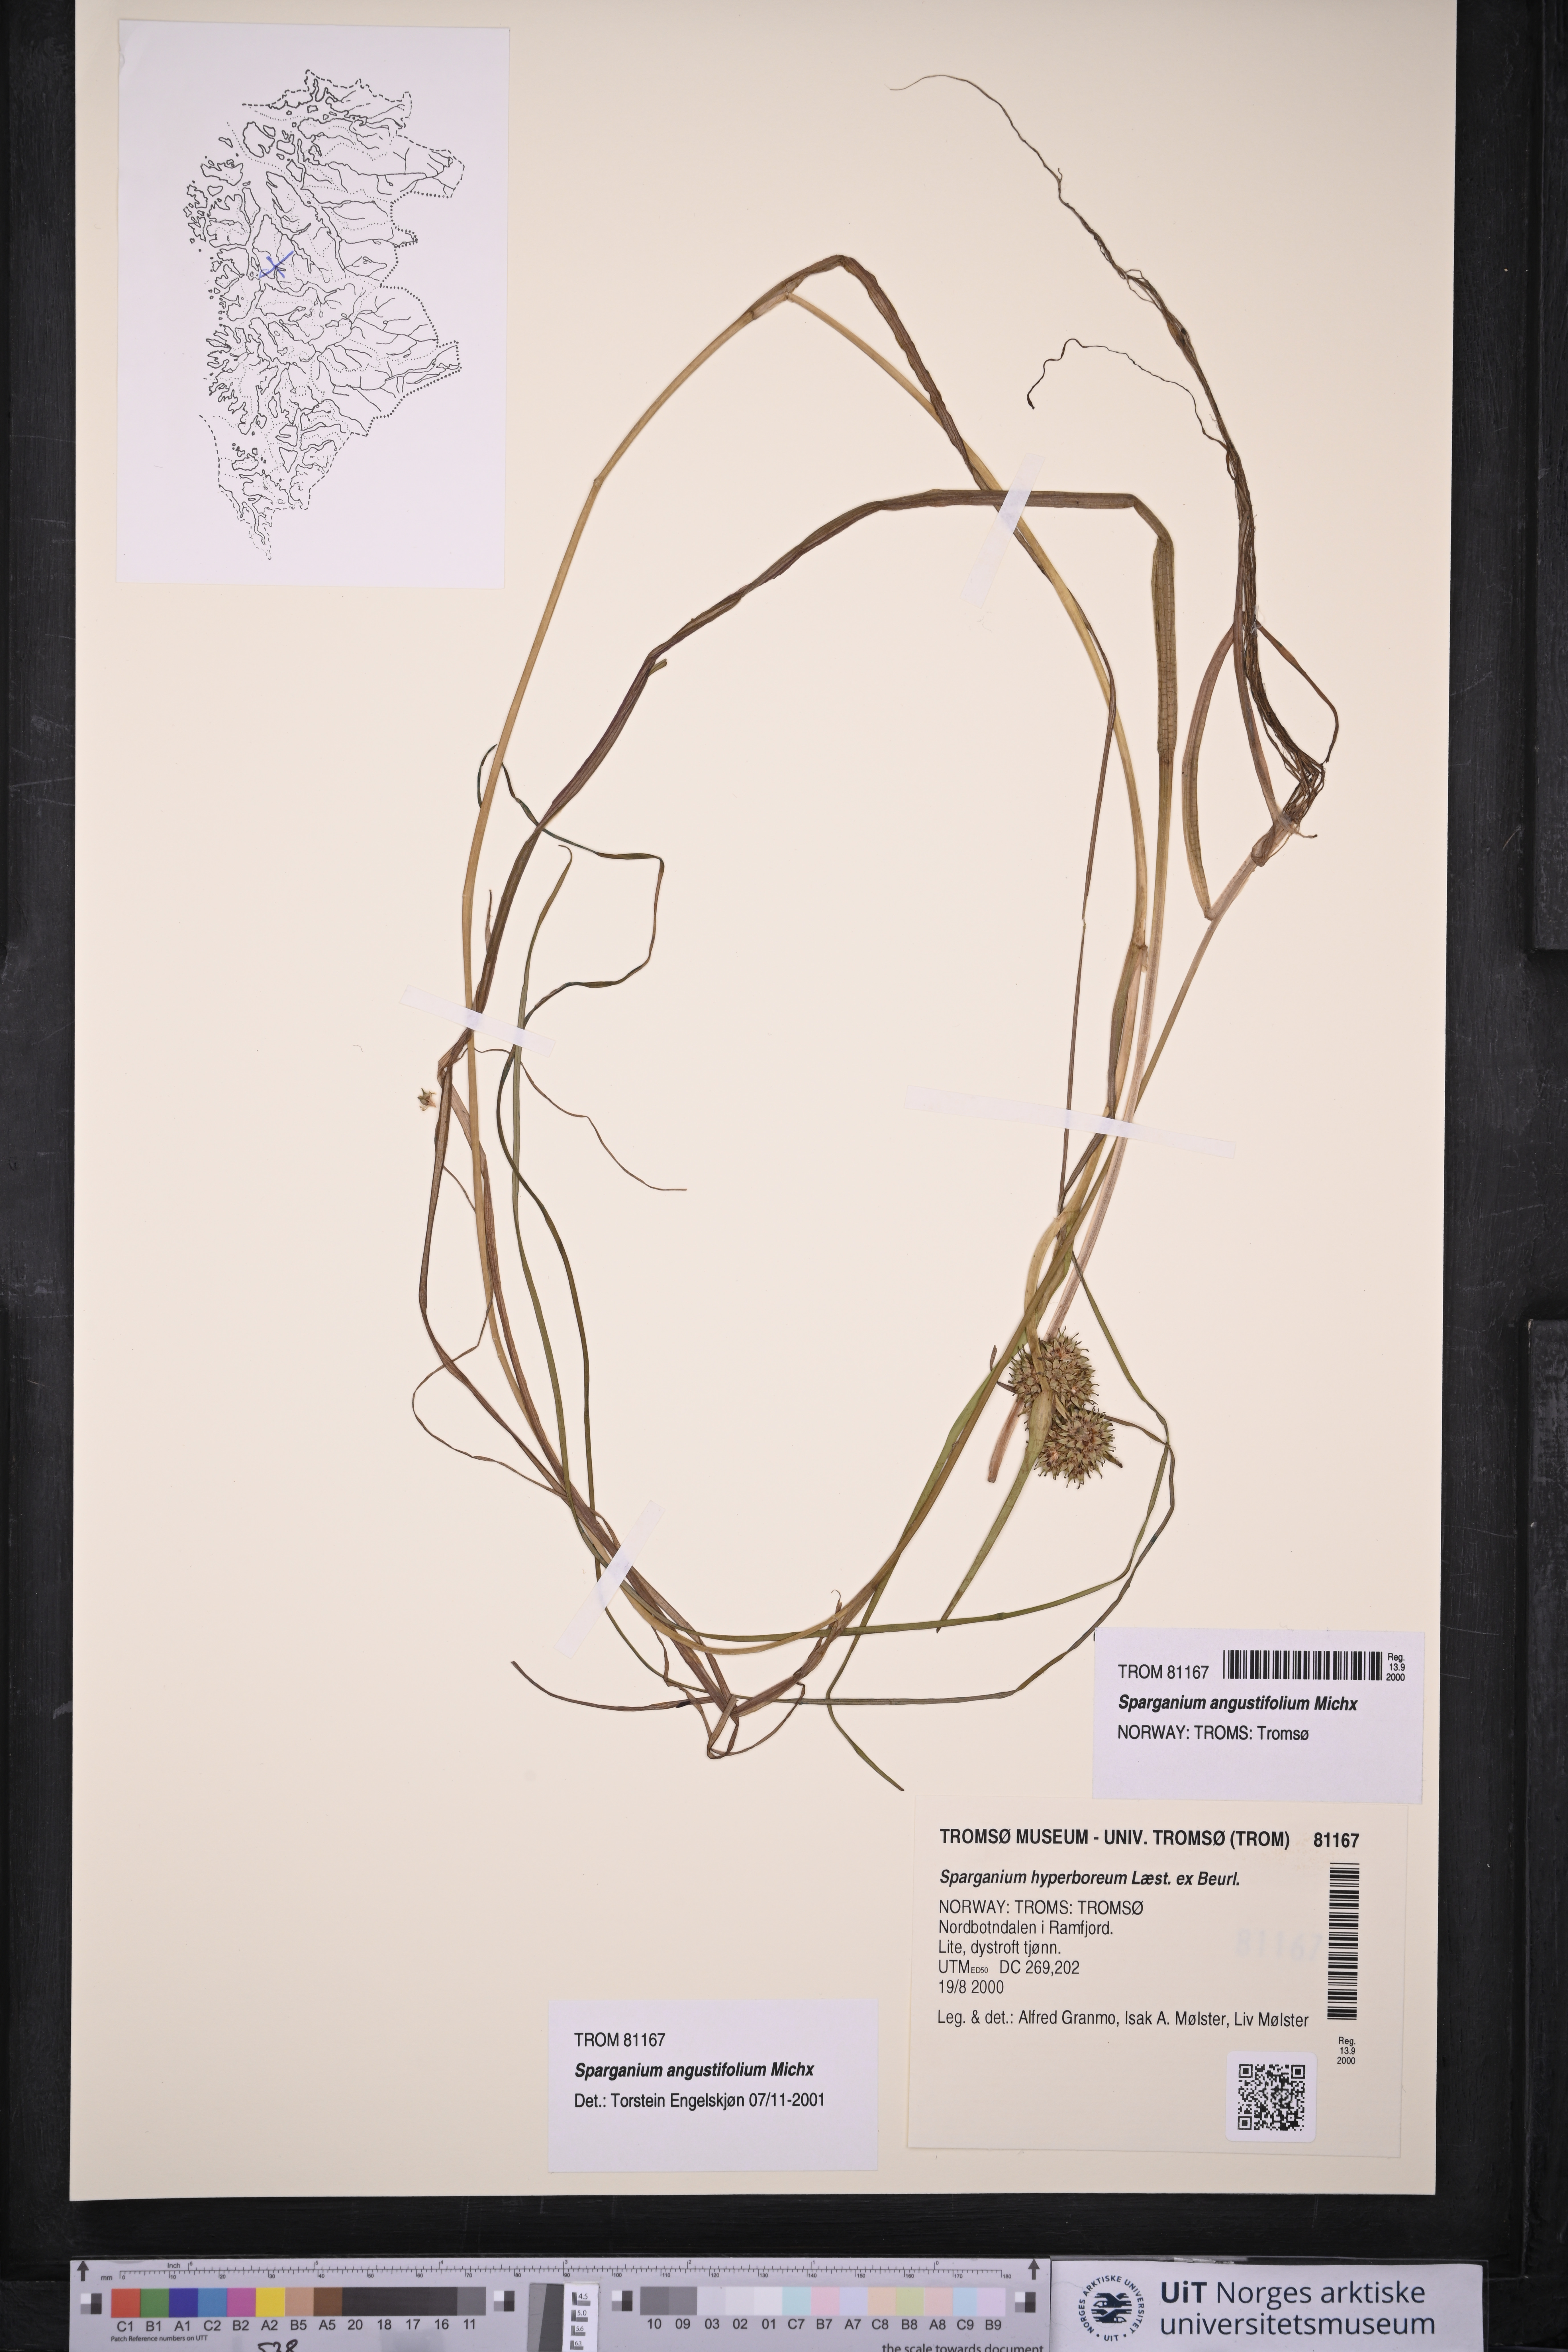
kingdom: Plantae
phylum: Tracheophyta
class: Liliopsida
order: Poales
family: Typhaceae
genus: Sparganium
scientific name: Sparganium angustifolium
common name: Floating bur-reed
